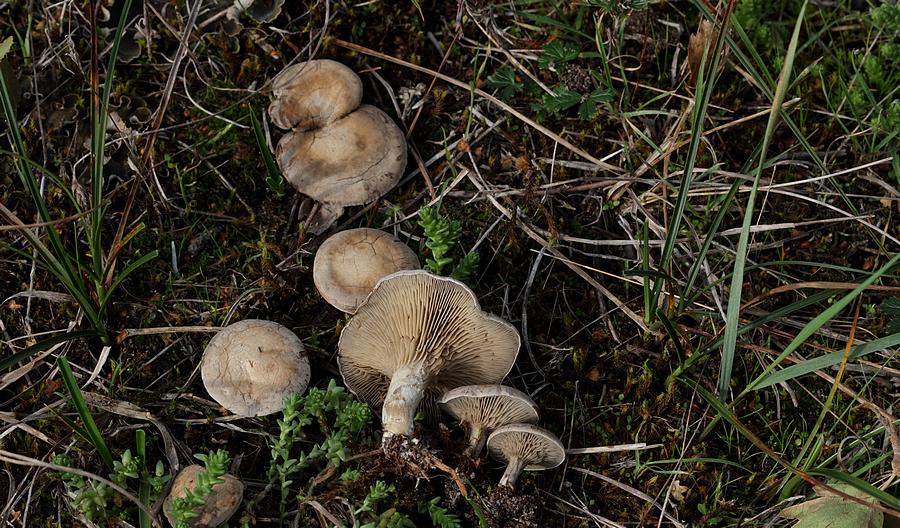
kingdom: Fungi
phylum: Basidiomycota
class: Agaricomycetes
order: Agaricales
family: Tricholomataceae
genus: Lulesia
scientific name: Lulesia
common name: sortnende troldhat
